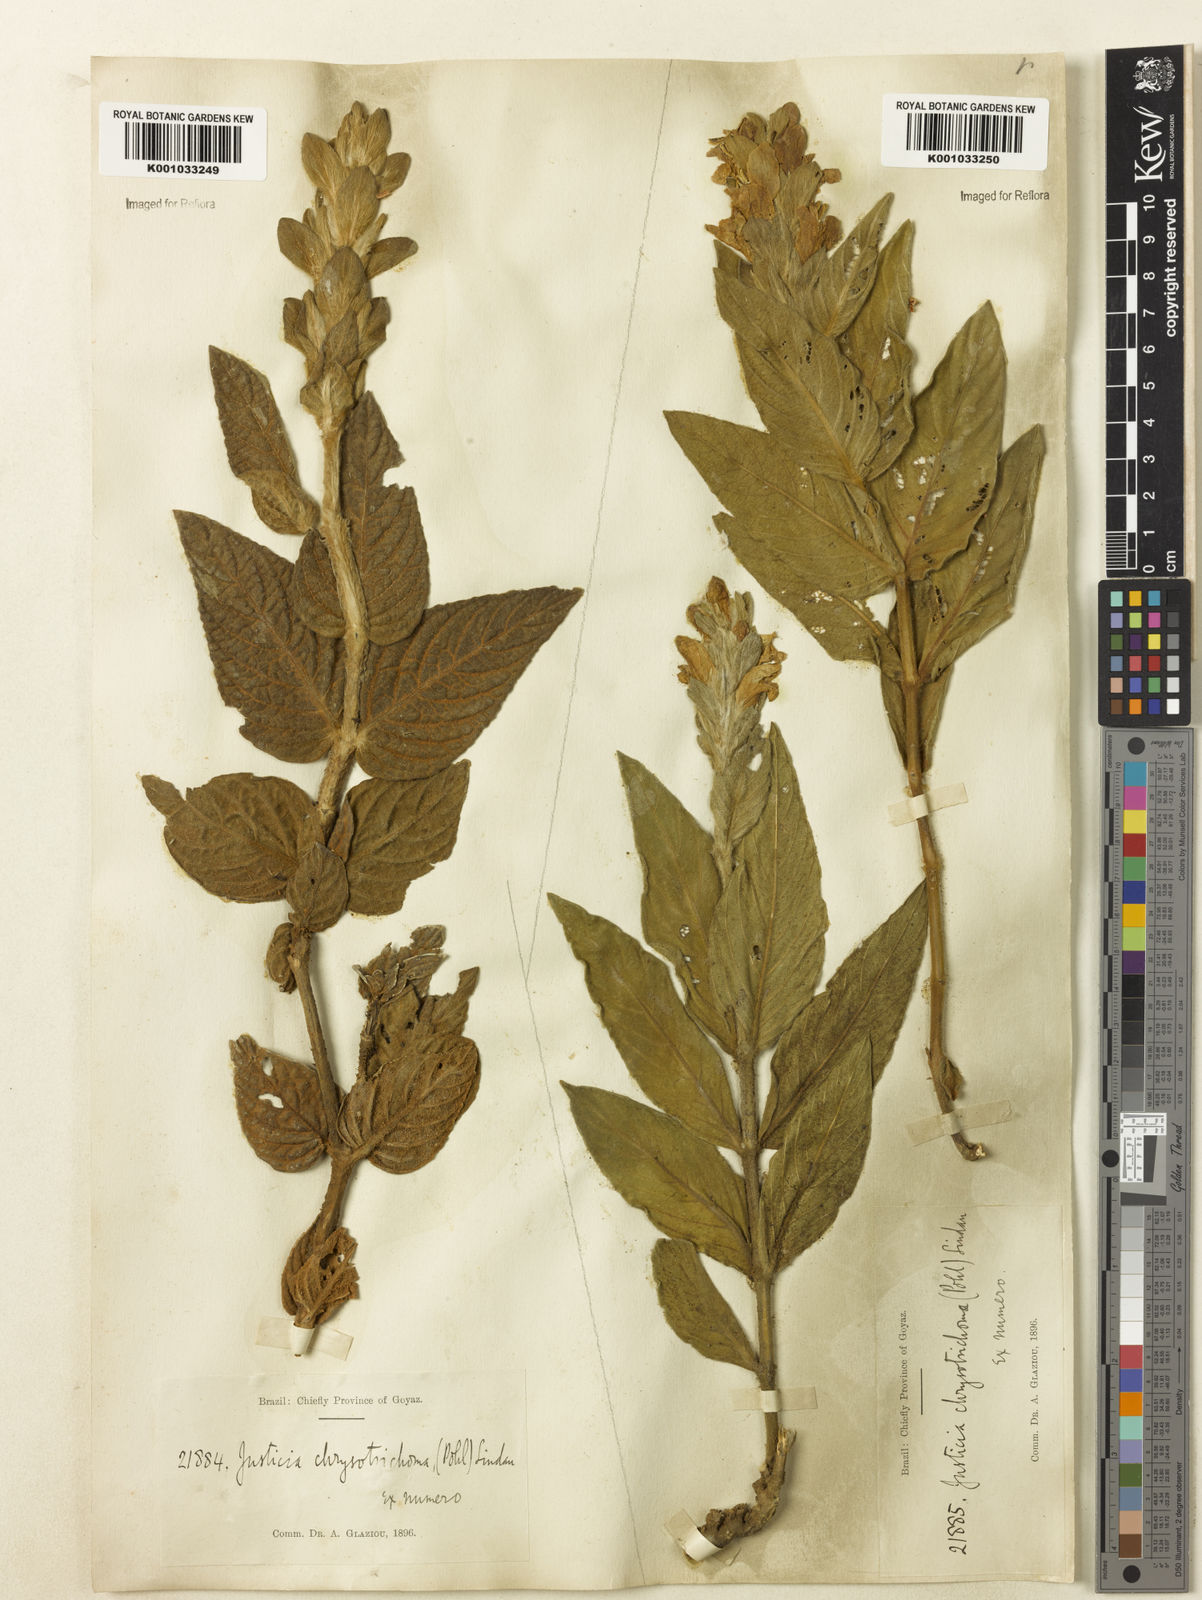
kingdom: Plantae
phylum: Tracheophyta
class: Magnoliopsida
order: Lamiales
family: Acanthaceae
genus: Justicia
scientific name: Justicia chrysotrichoma
